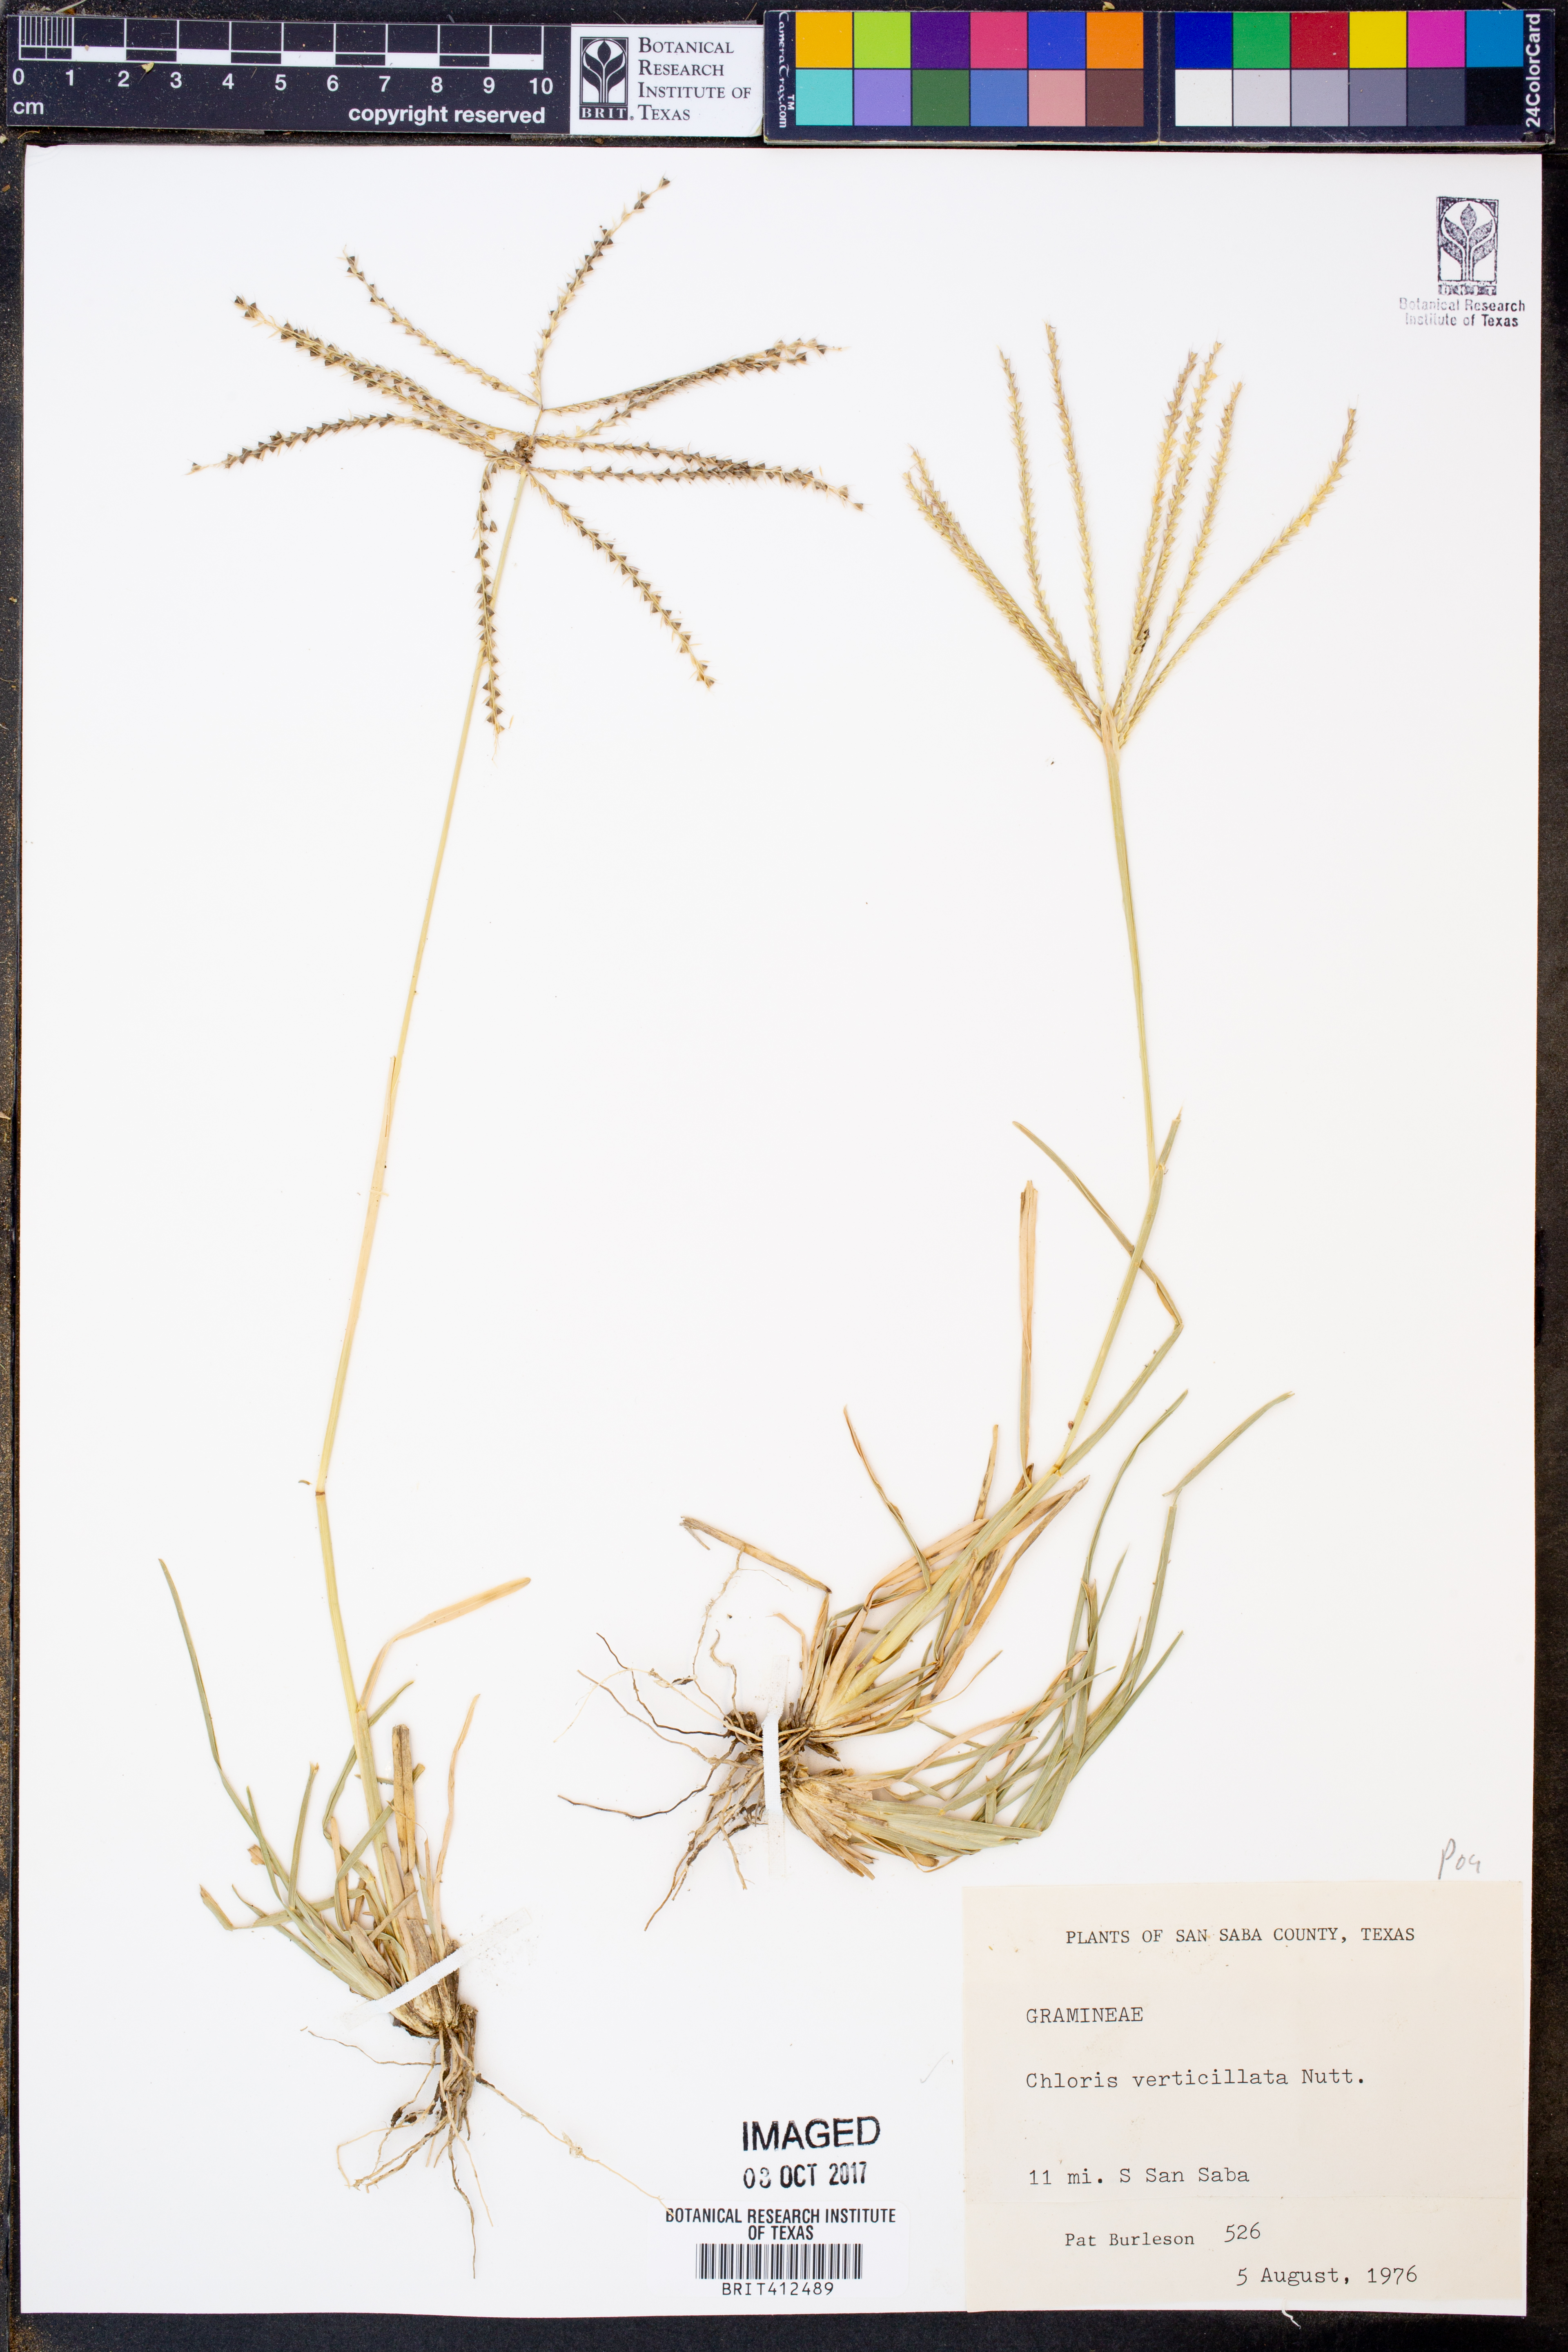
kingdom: Plantae
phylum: Tracheophyta
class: Liliopsida
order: Poales
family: Poaceae
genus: Chloris
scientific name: Chloris verticillata
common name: Tumble windmill grass
